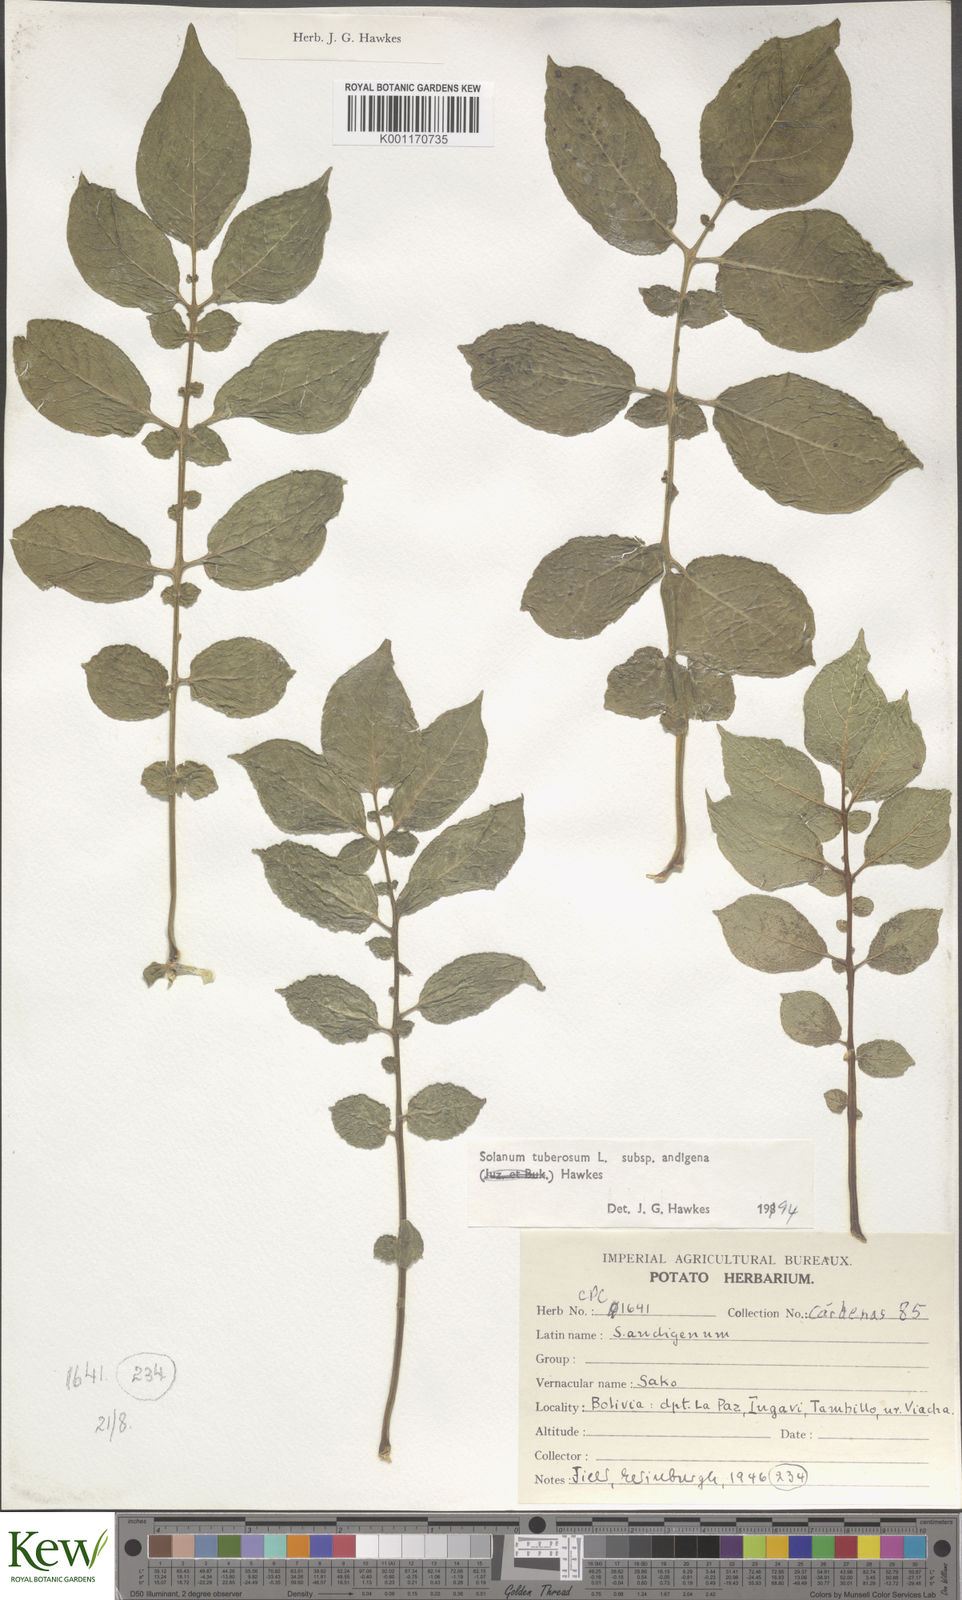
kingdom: Plantae
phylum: Tracheophyta
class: Magnoliopsida
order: Solanales
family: Solanaceae
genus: Solanum
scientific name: Solanum tuberosum
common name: Potato
